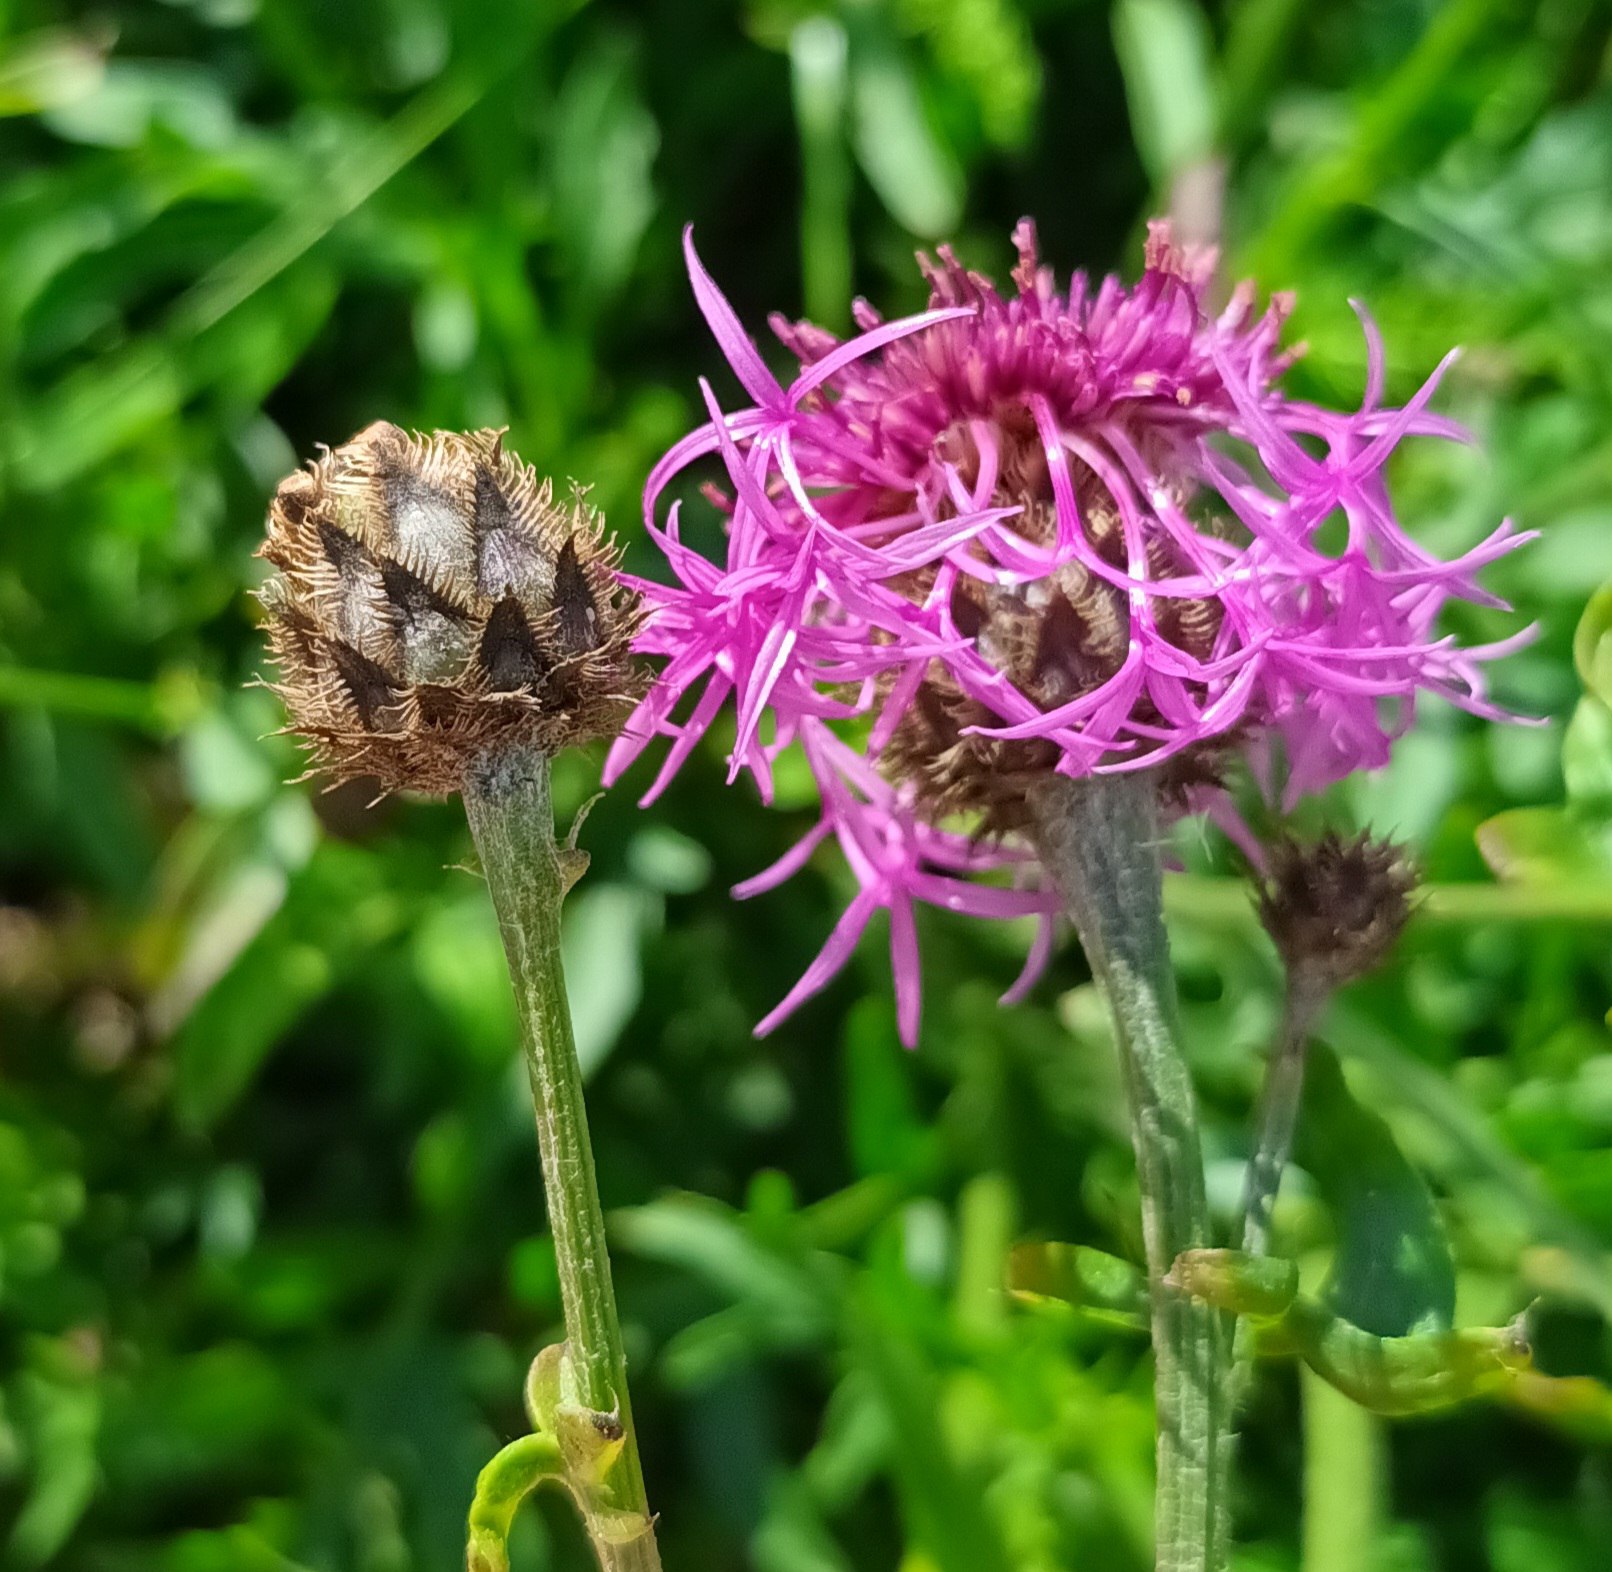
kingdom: Plantae
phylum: Tracheophyta
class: Magnoliopsida
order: Asterales
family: Asteraceae
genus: Centaurea
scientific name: Centaurea scabiosa
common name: Stor knopurt
